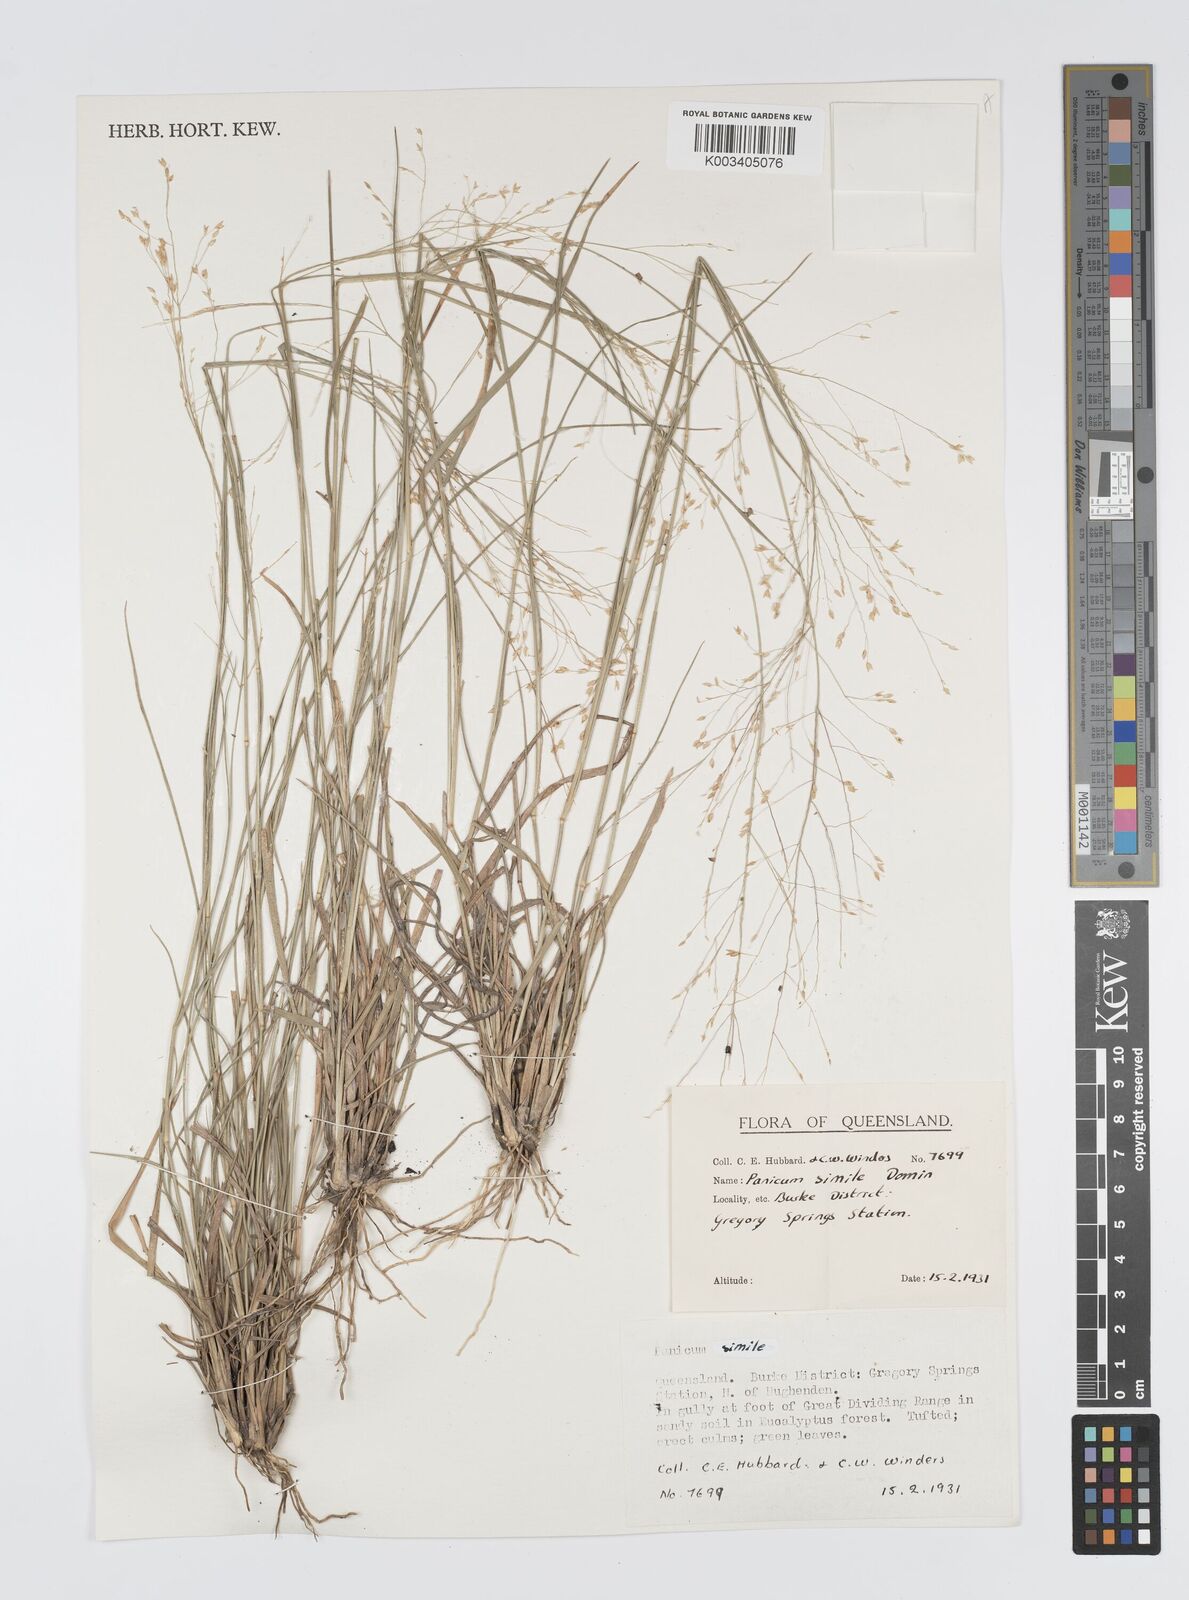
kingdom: Plantae
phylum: Tracheophyta
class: Liliopsida
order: Poales
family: Poaceae
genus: Panicum
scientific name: Panicum simile
